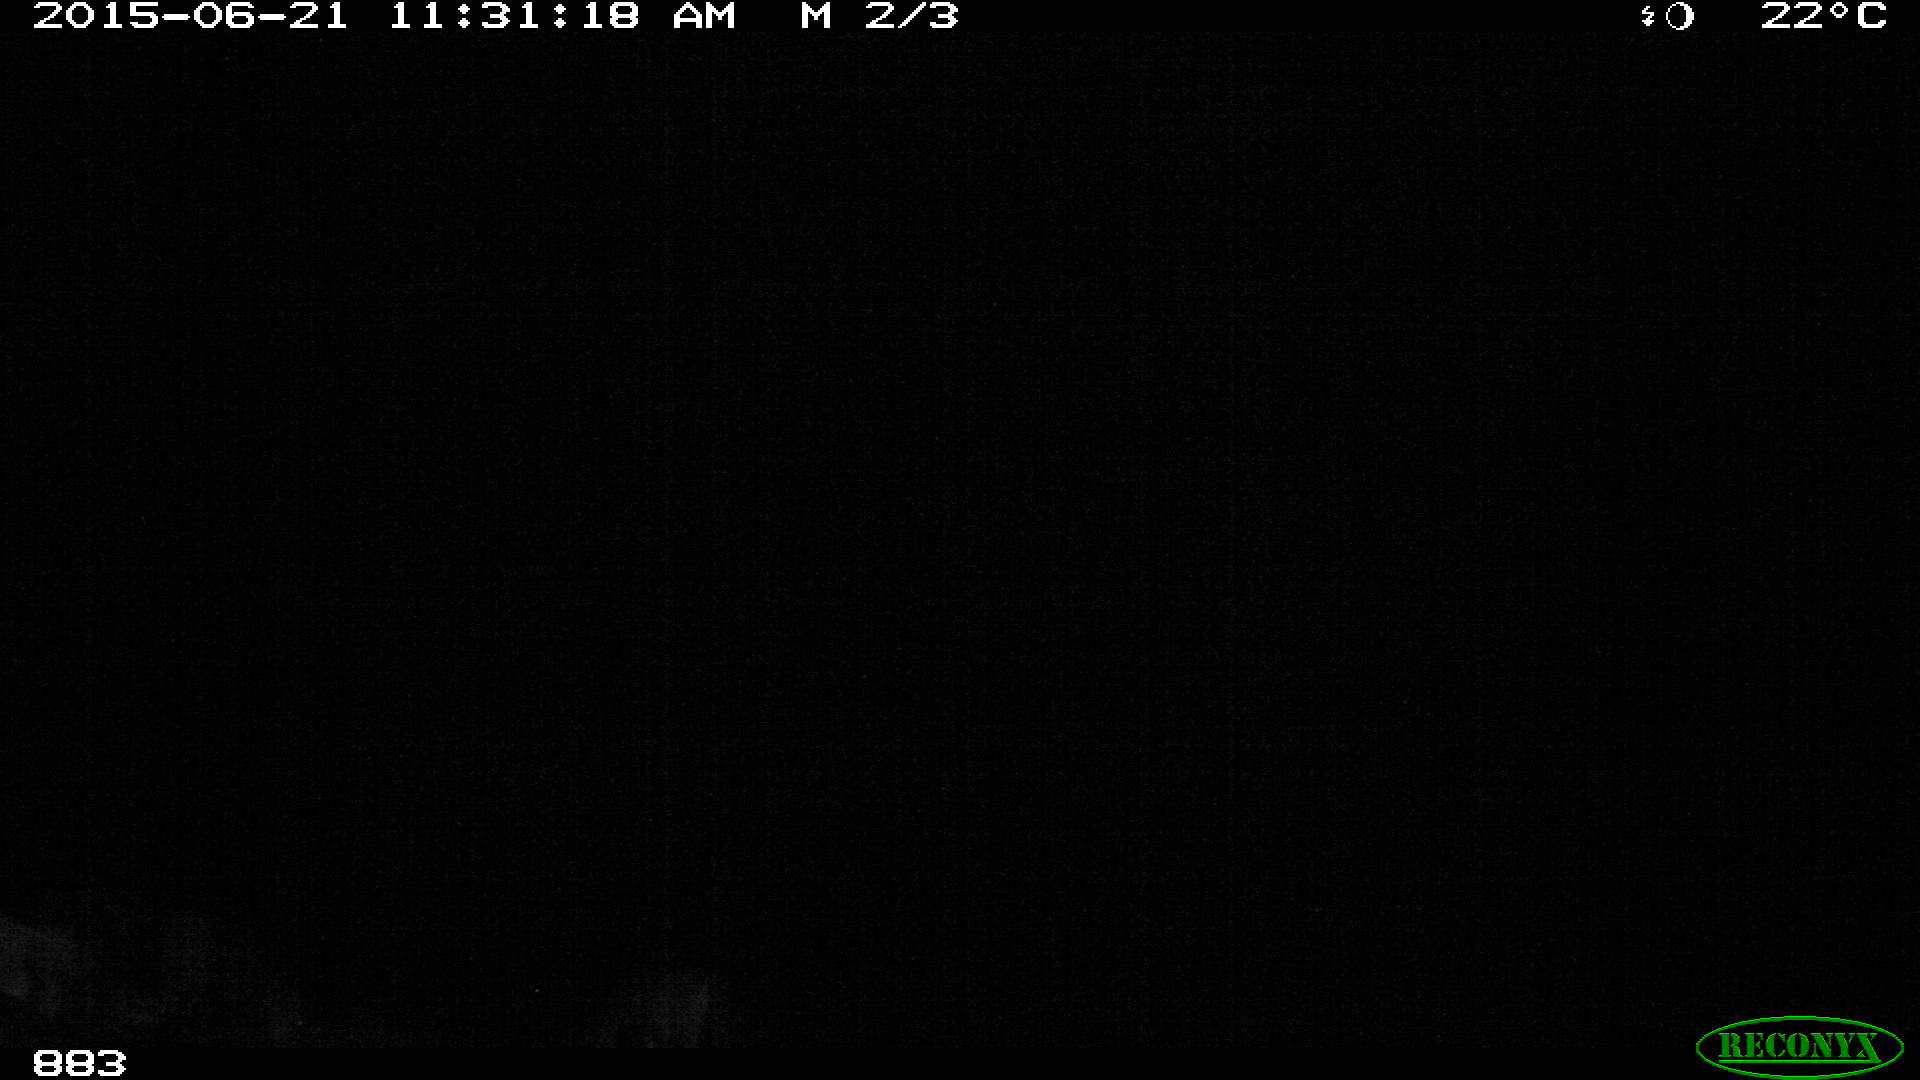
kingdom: Animalia
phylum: Chordata
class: Mammalia
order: Perissodactyla
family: Equidae
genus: Equus
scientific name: Equus caballus
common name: Horse
